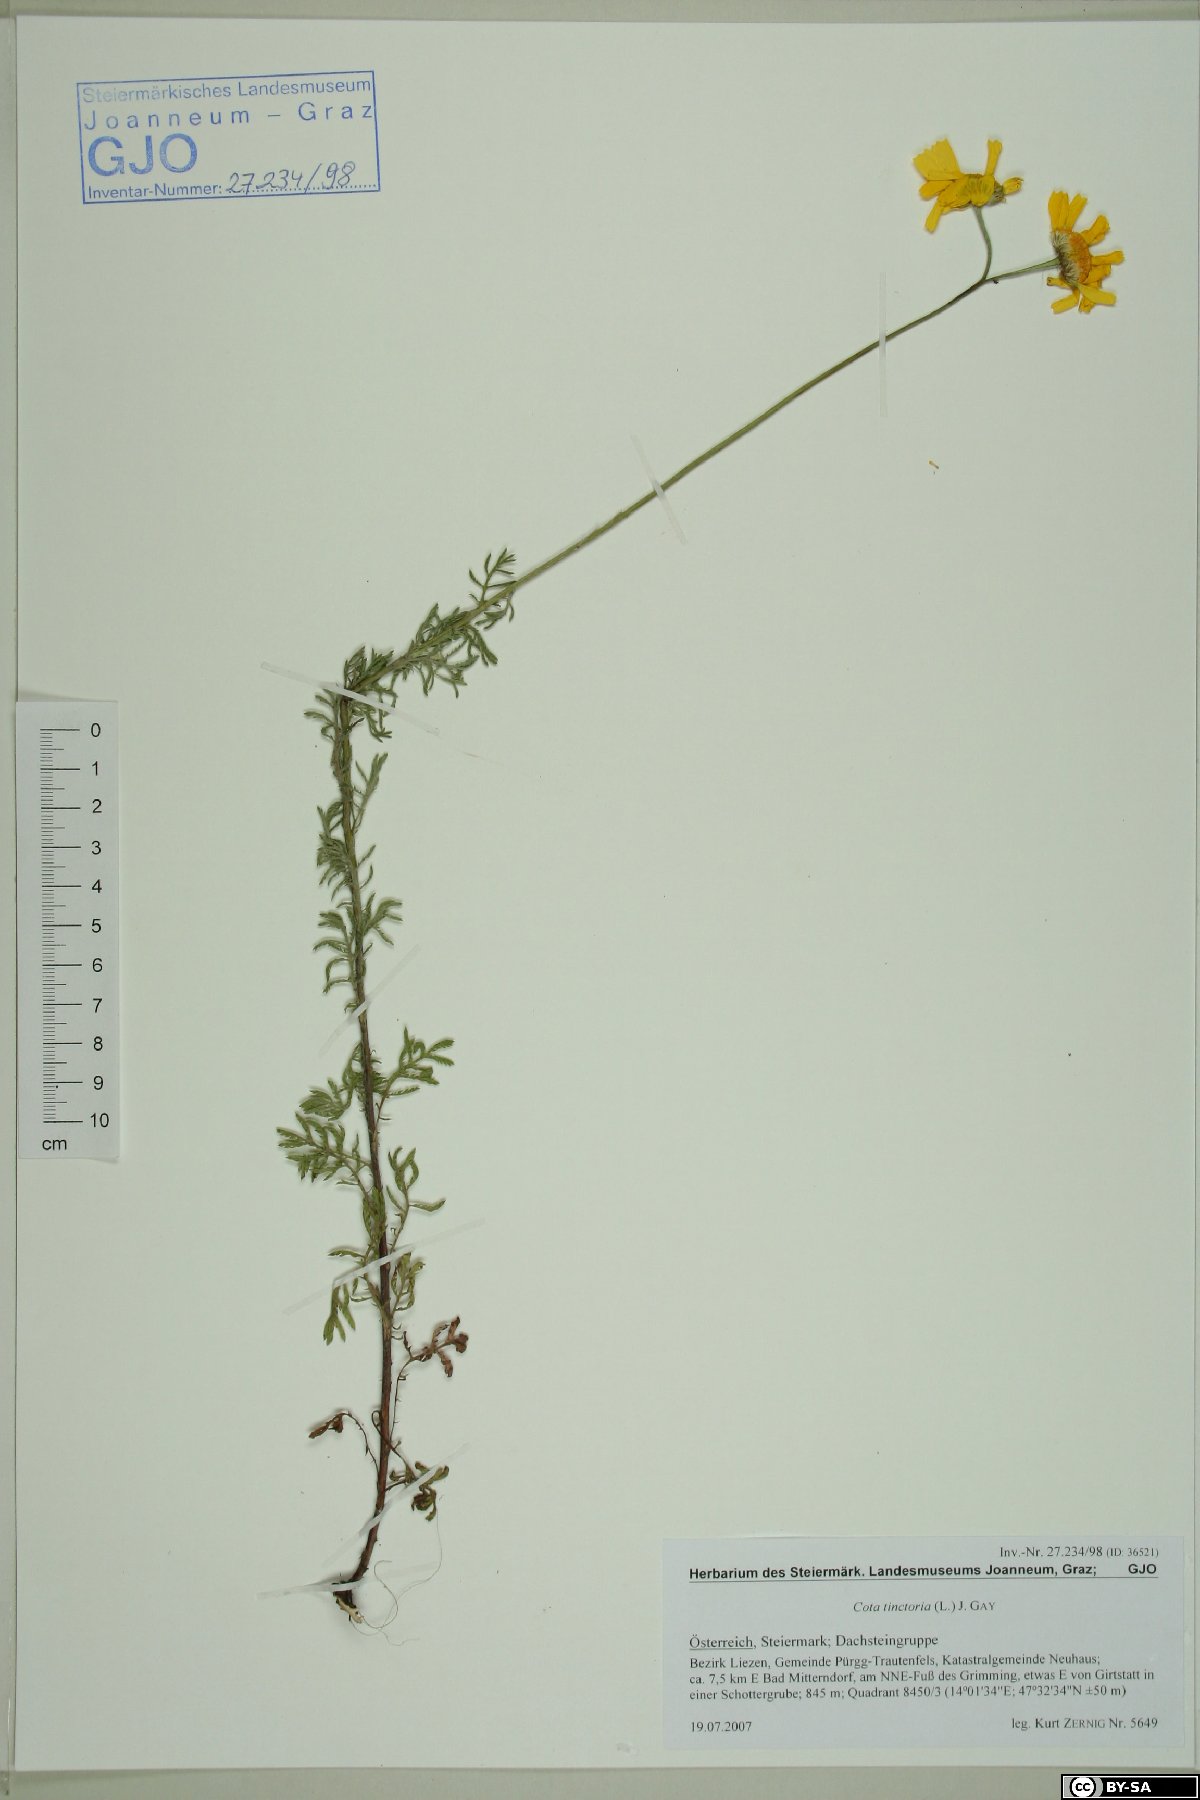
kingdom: Plantae
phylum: Tracheophyta
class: Magnoliopsida
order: Asterales
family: Asteraceae
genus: Cota
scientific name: Cota tinctoria
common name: Golden chamomile
